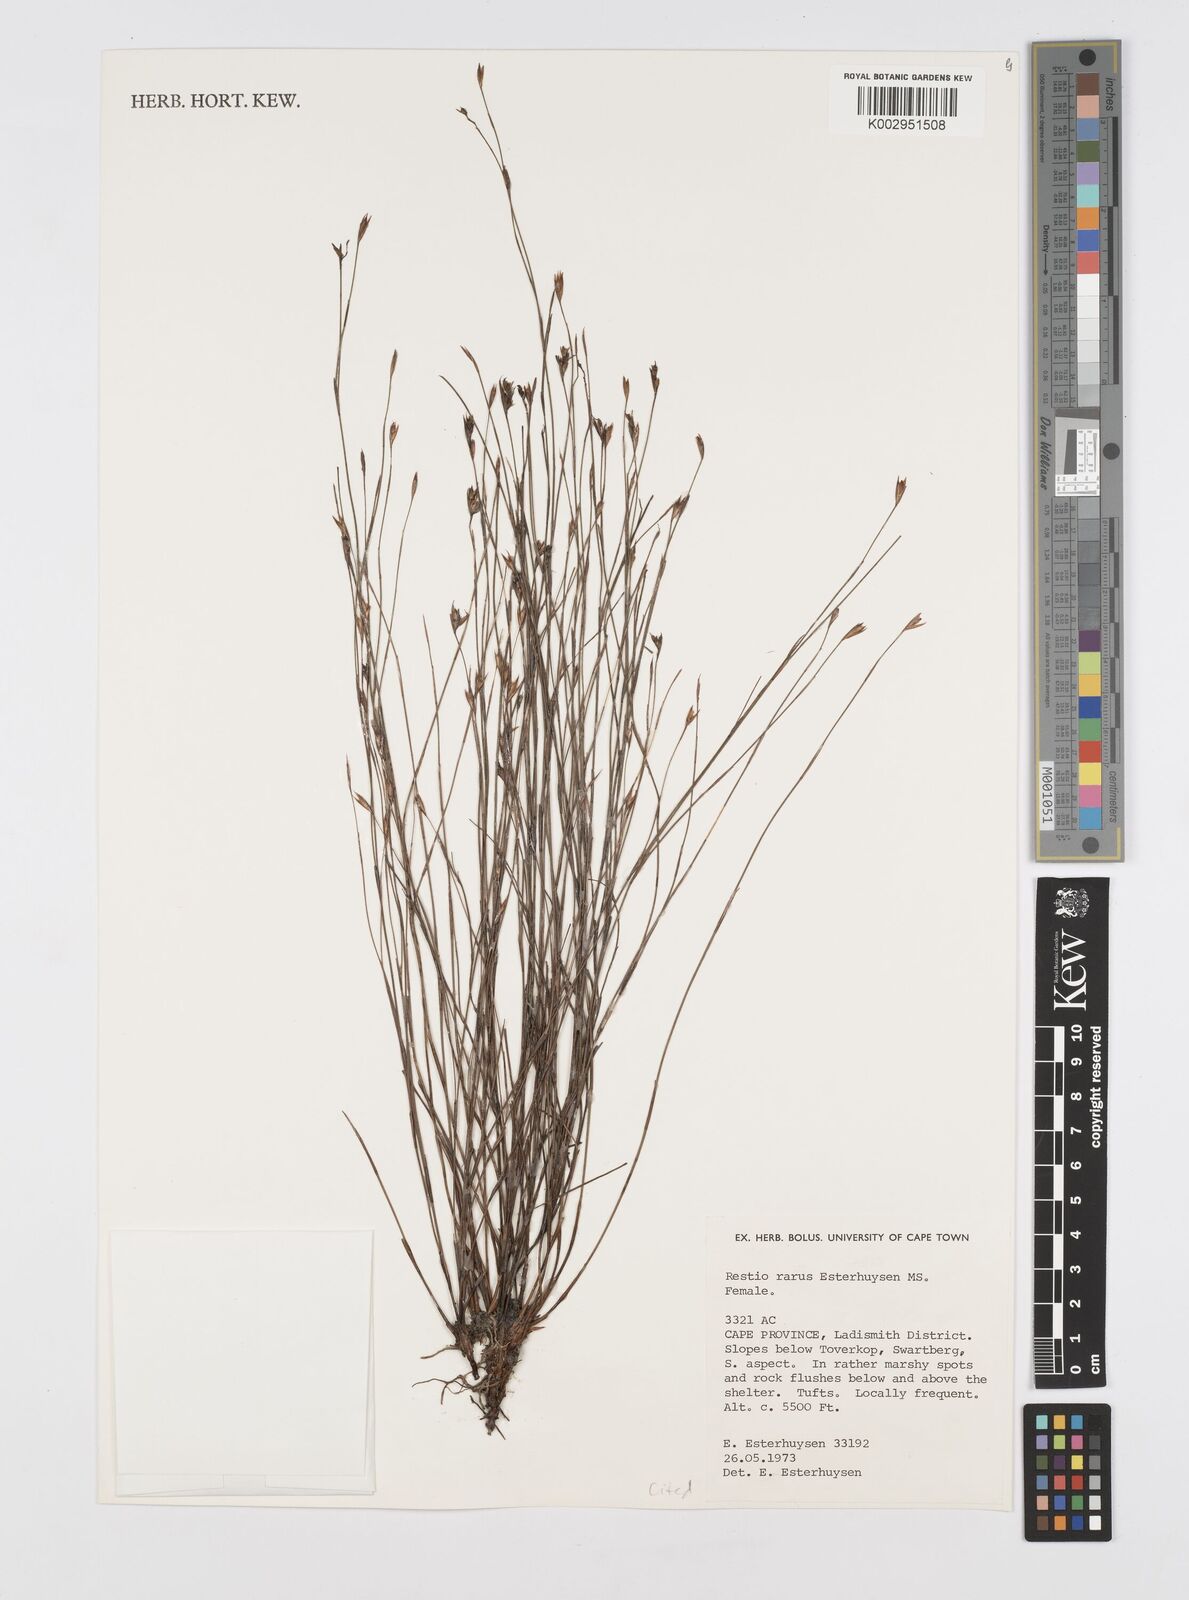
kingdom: Plantae
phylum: Tracheophyta
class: Liliopsida
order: Poales
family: Restionaceae
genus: Restio
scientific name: Restio rarus
